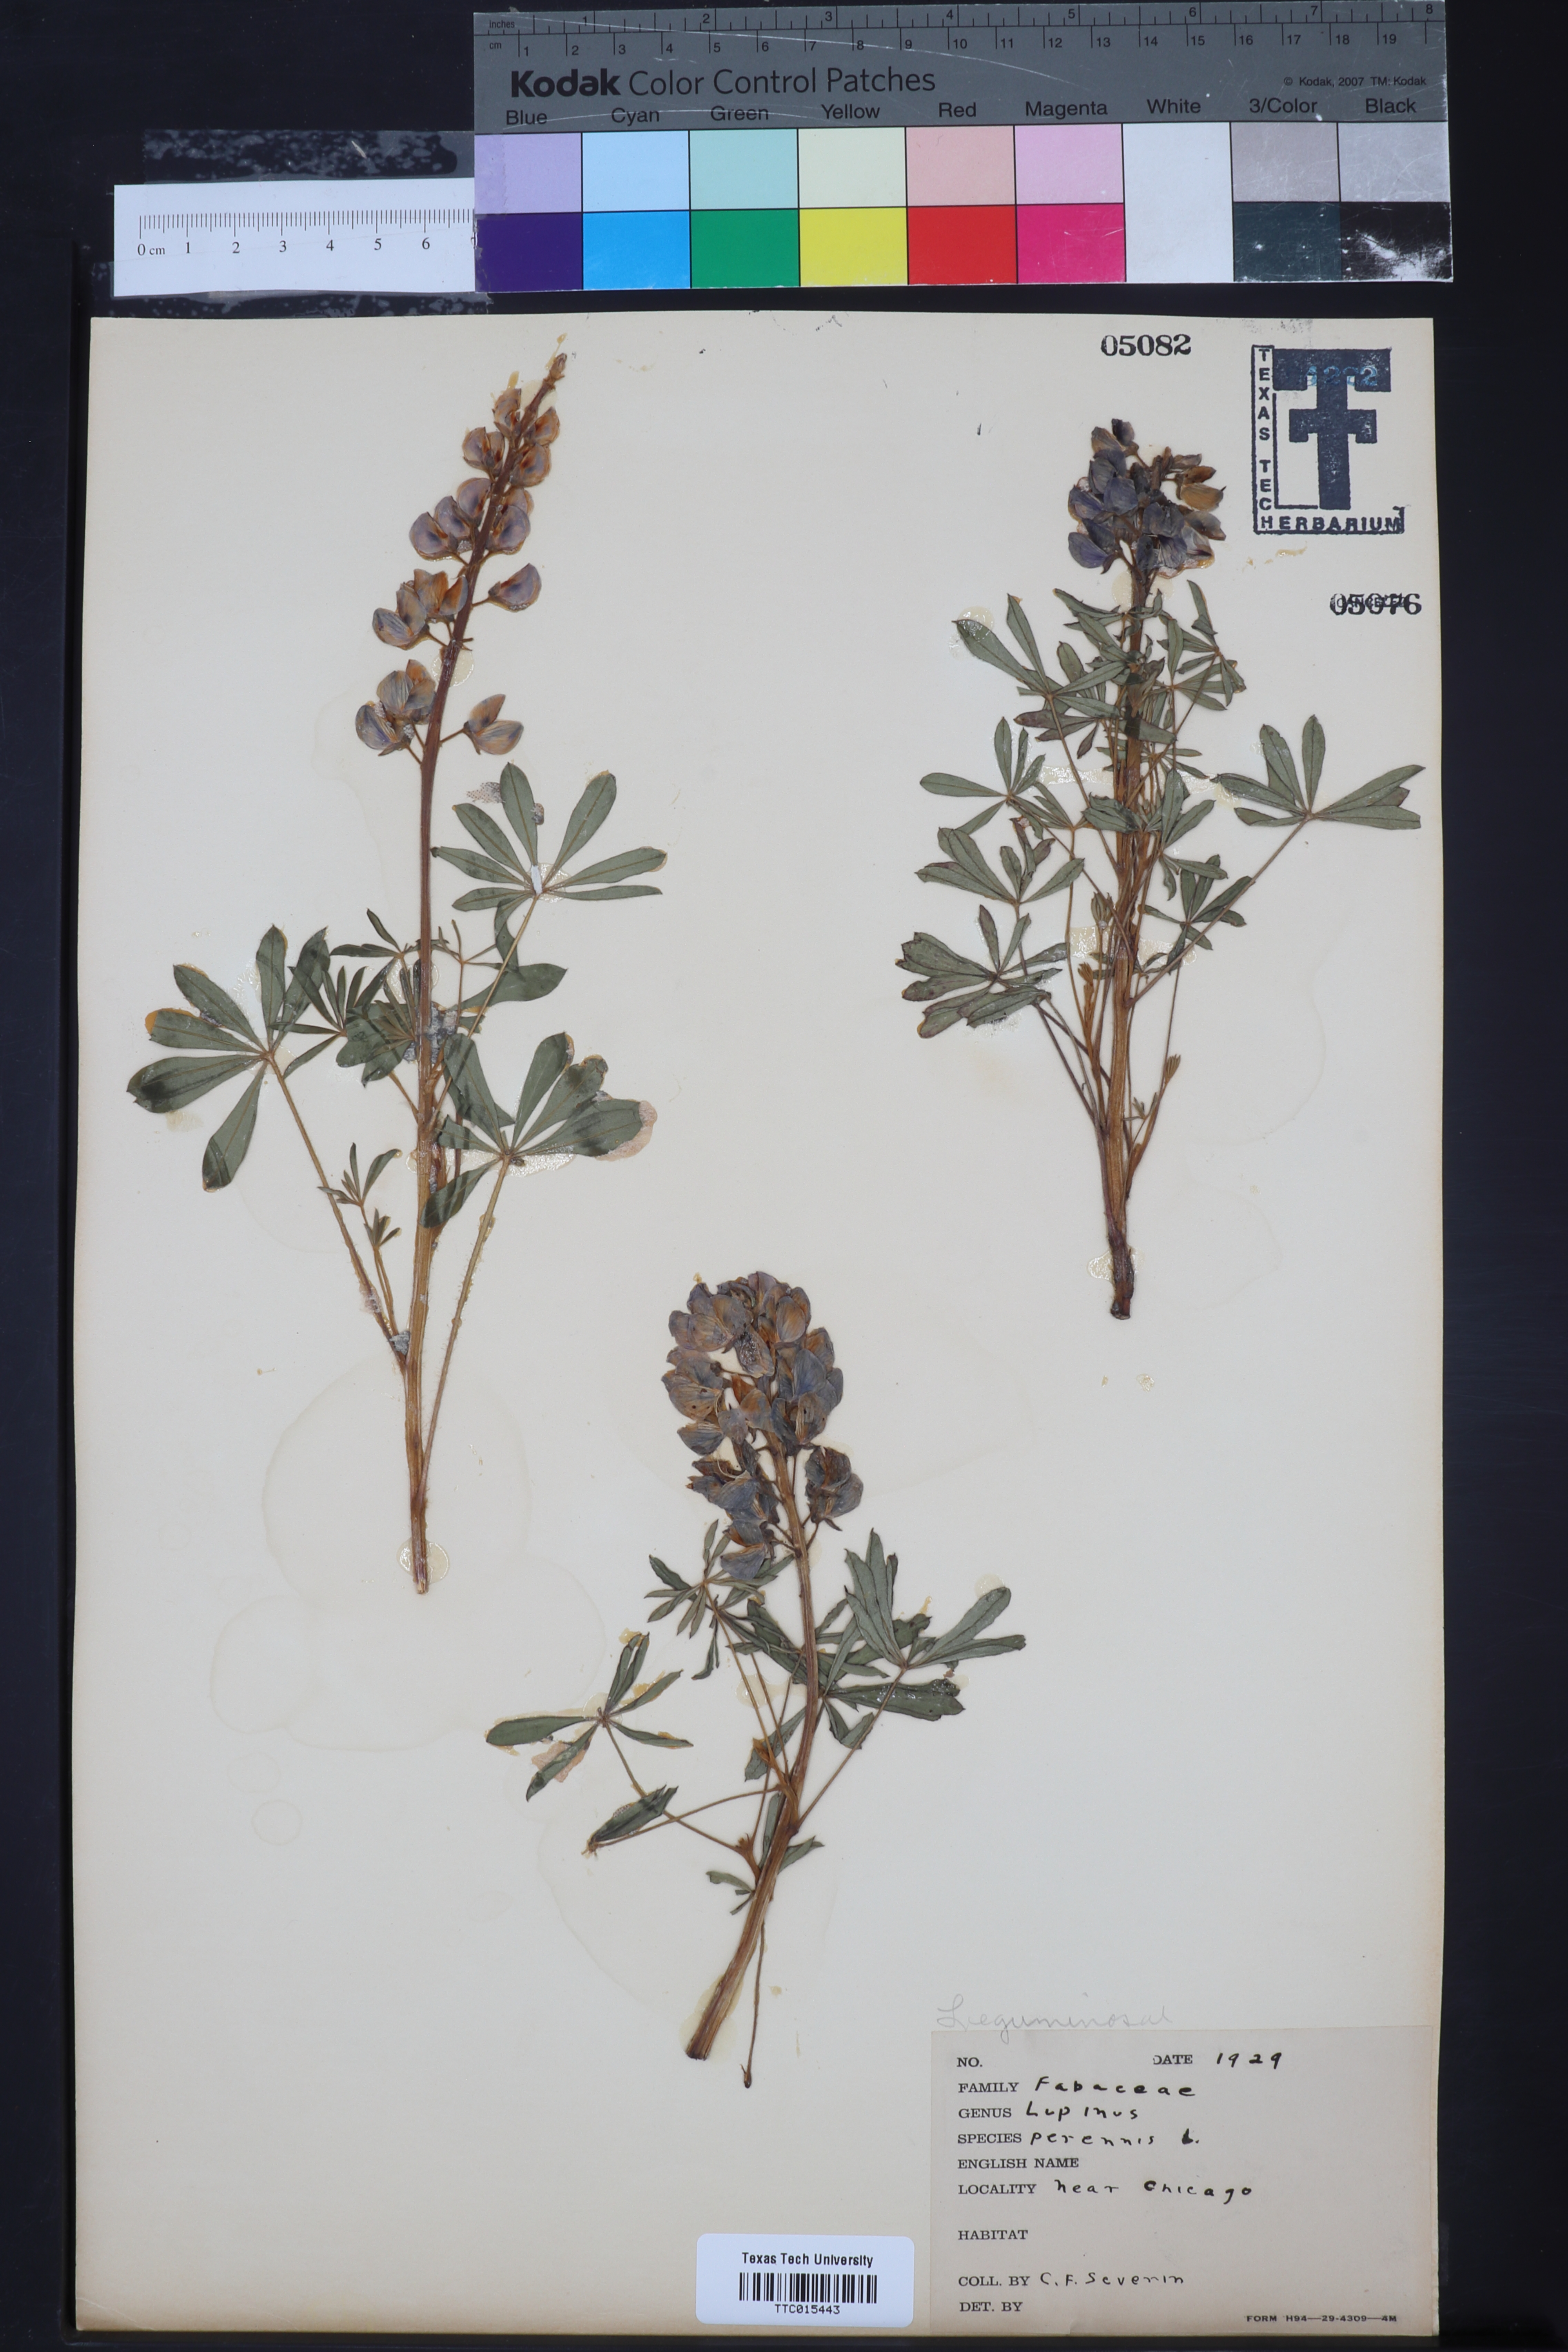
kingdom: Plantae
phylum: Tracheophyta
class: Magnoliopsida
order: Fabales
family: Fabaceae
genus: Lupinus
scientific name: Lupinus perennis
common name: Sundial lupine
